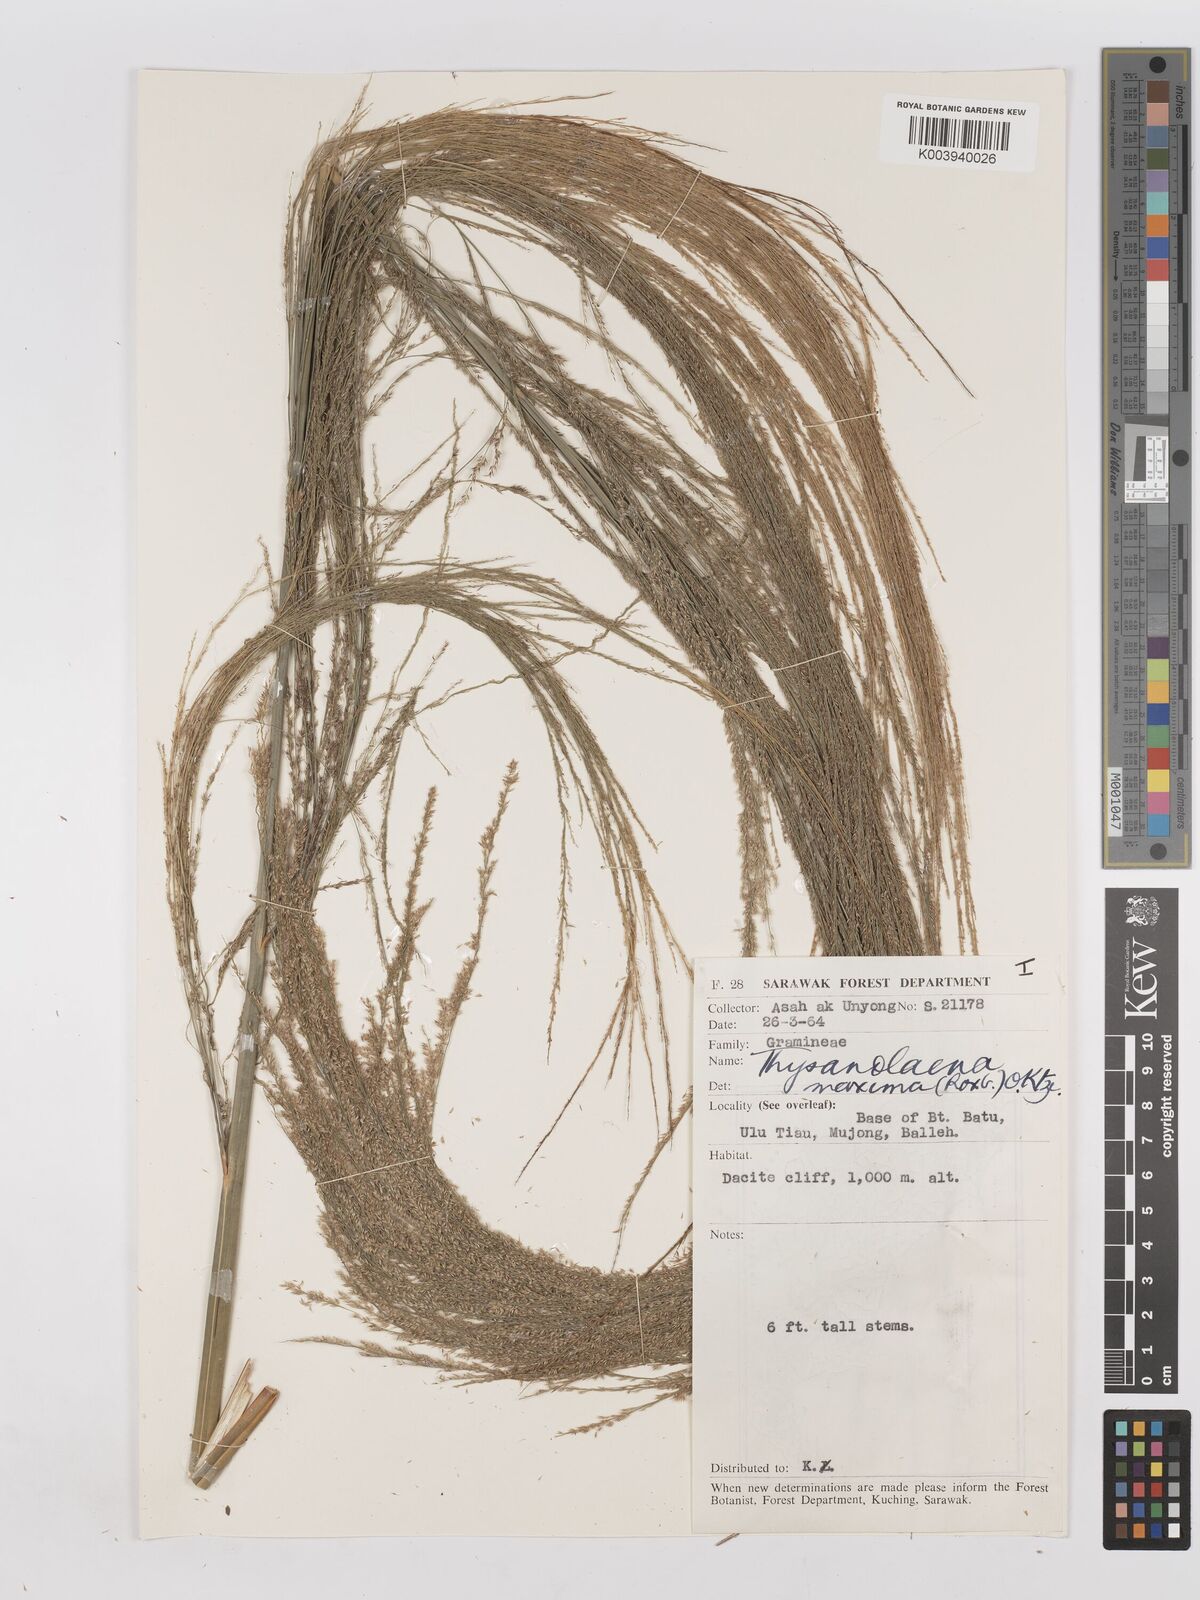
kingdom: Plantae
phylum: Tracheophyta
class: Liliopsida
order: Poales
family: Poaceae
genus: Thysanolaena
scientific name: Thysanolaena latifolia
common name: Tiger grass
